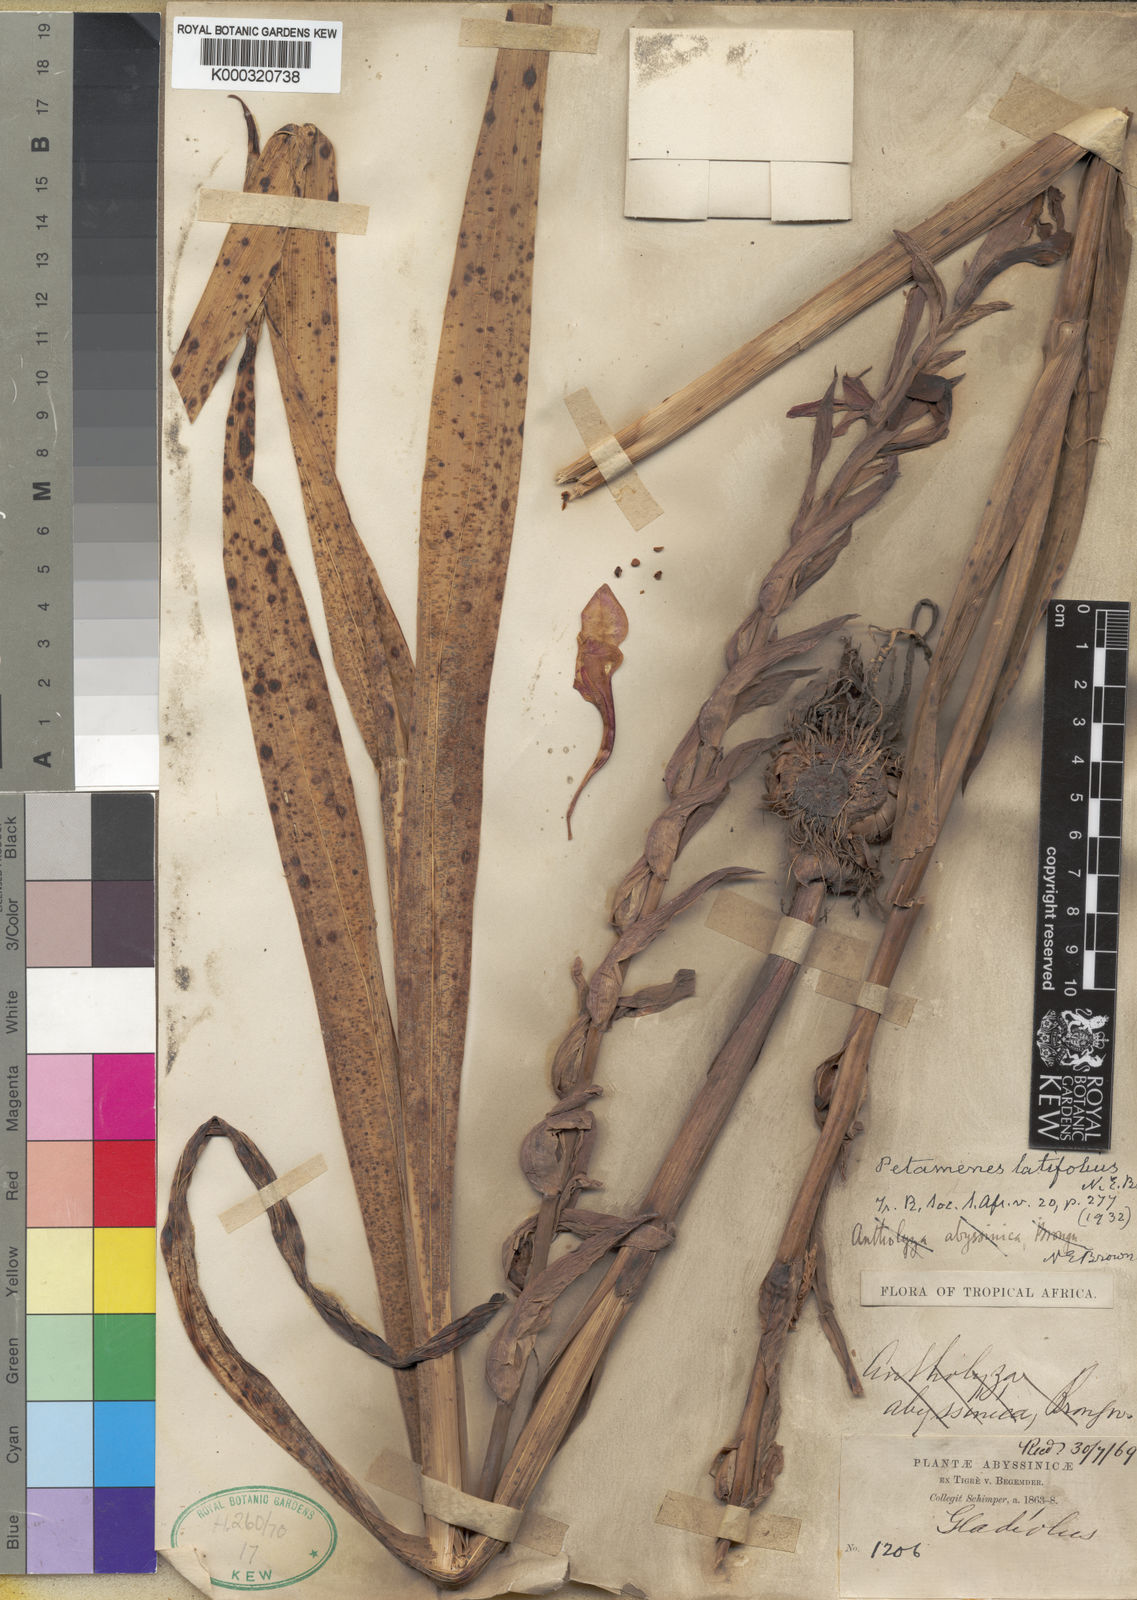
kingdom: Plantae
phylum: Tracheophyta
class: Liliopsida
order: Asparagales
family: Iridaceae
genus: Gladiolus
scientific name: Gladiolus
